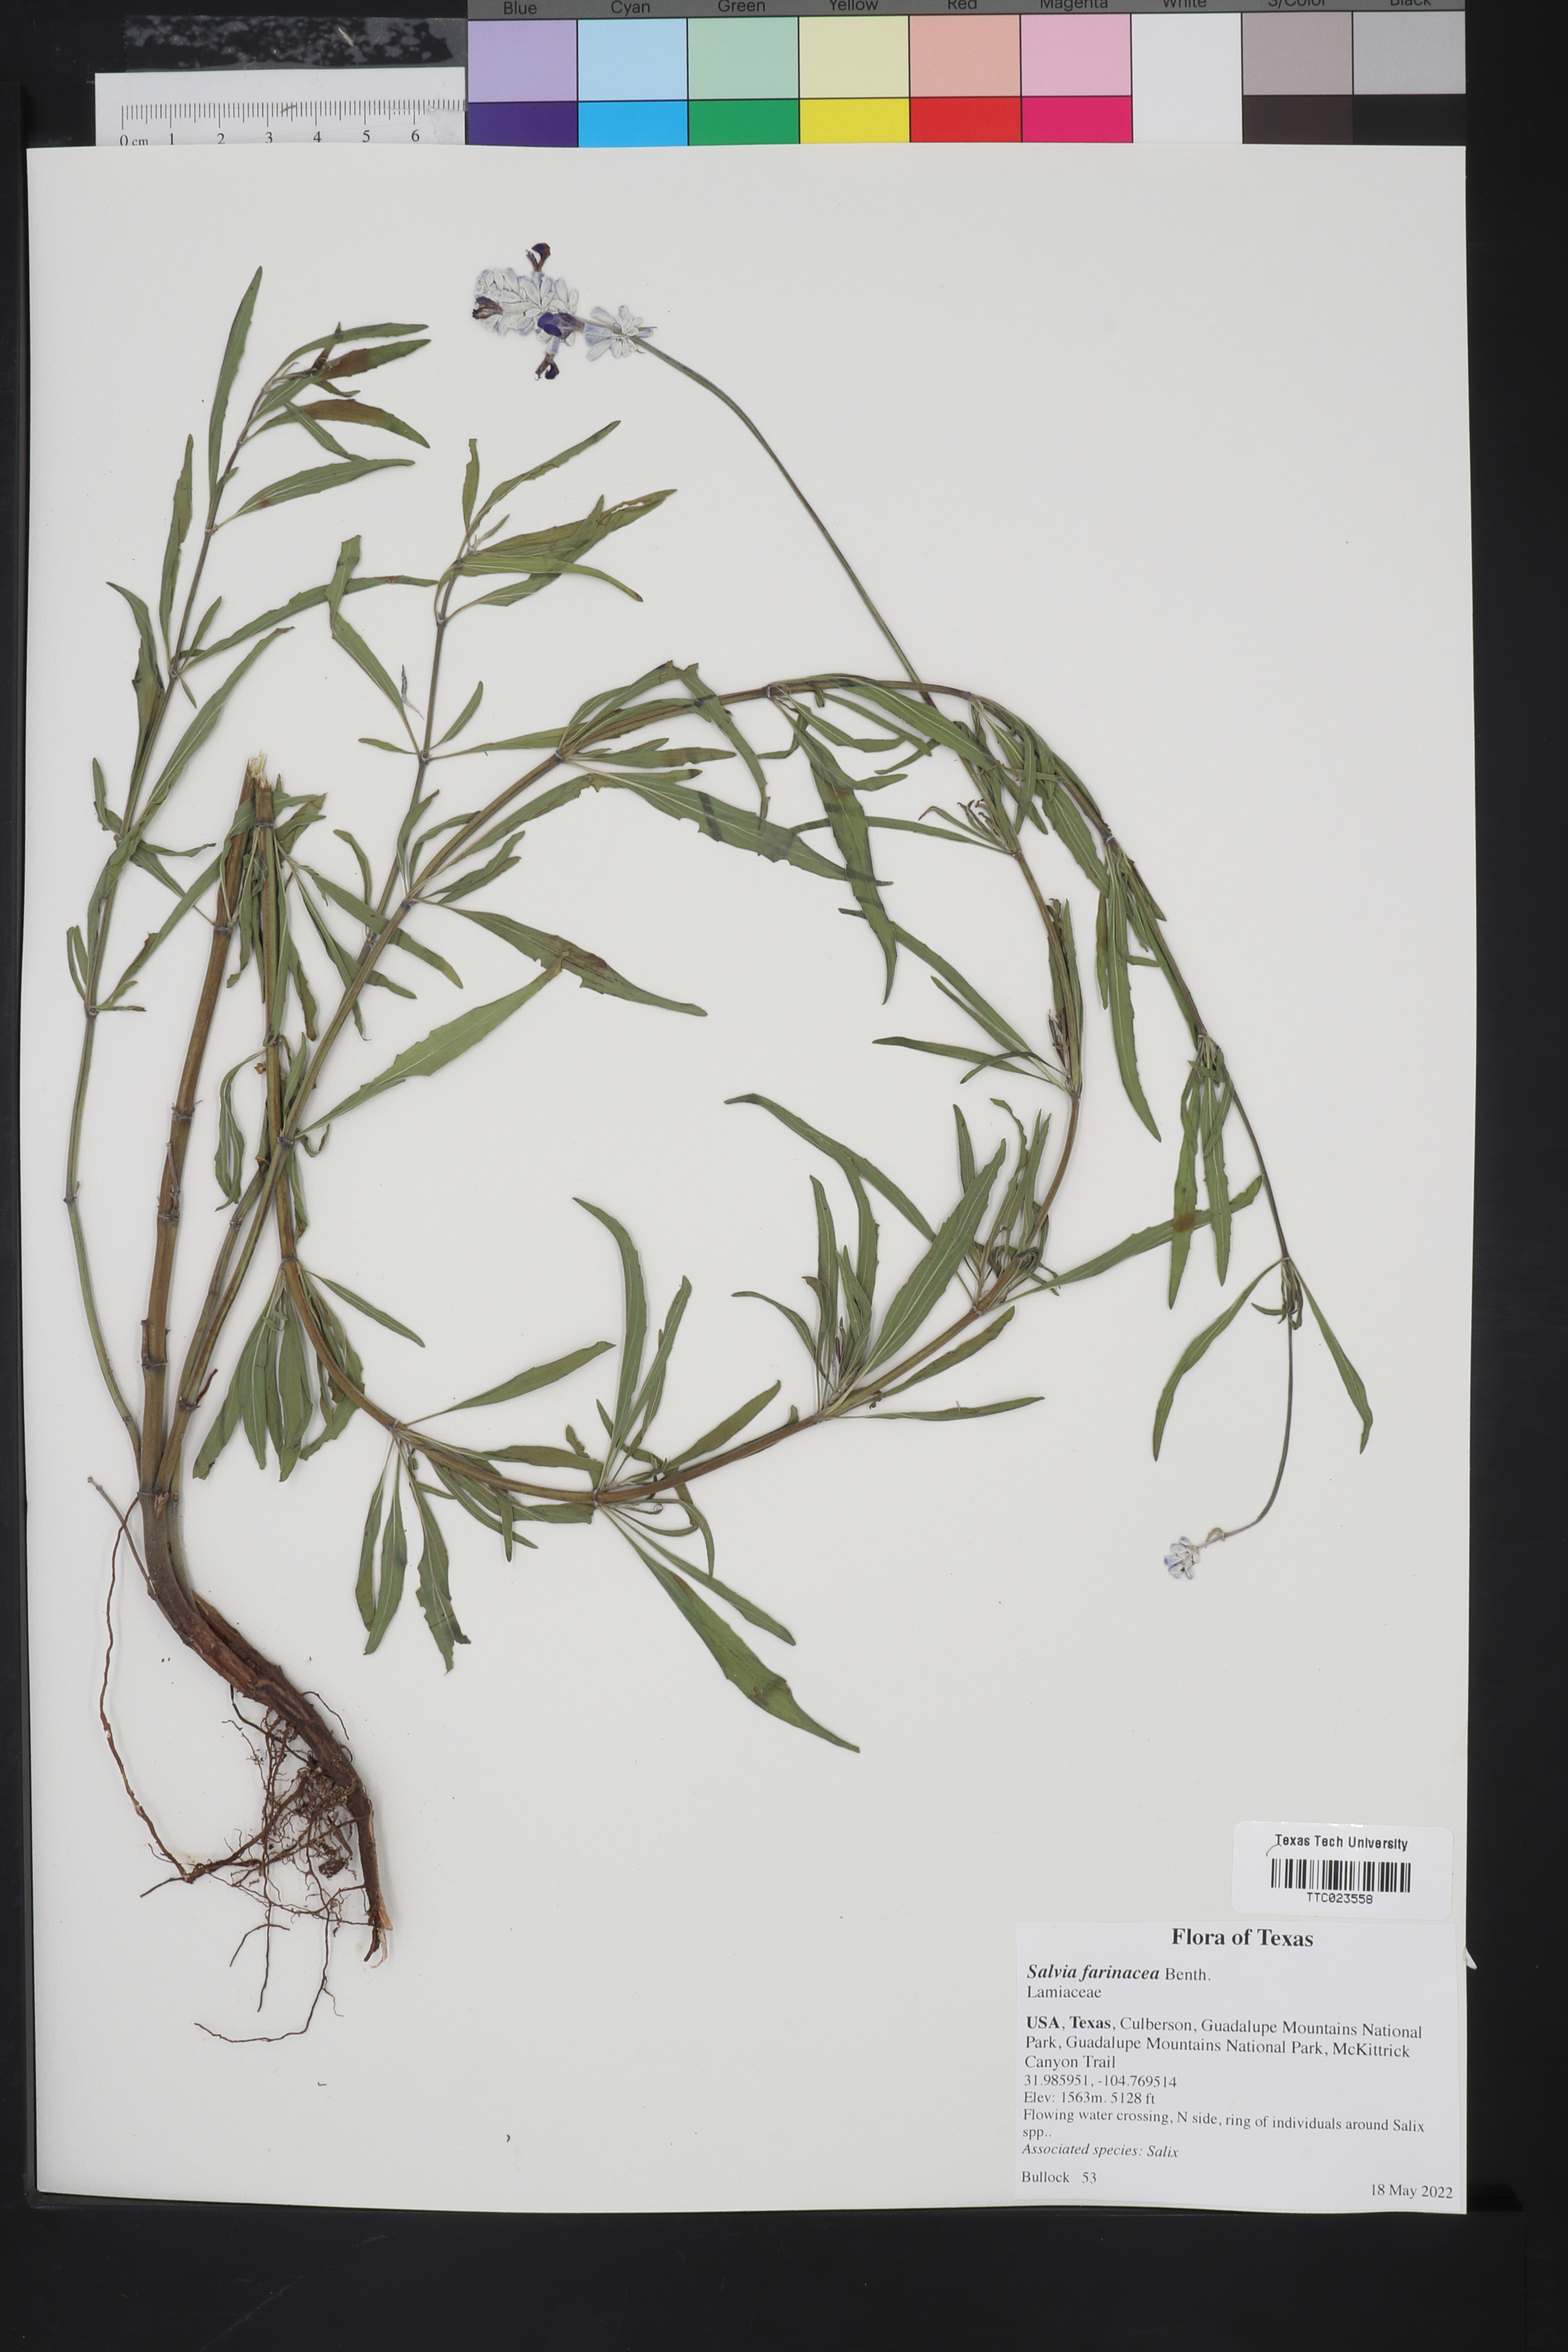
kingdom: Plantae
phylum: Tracheophyta
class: Magnoliopsida
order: Lamiales
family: Lamiaceae
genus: Salvia
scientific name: Salvia farinacea
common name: Mealy sage
